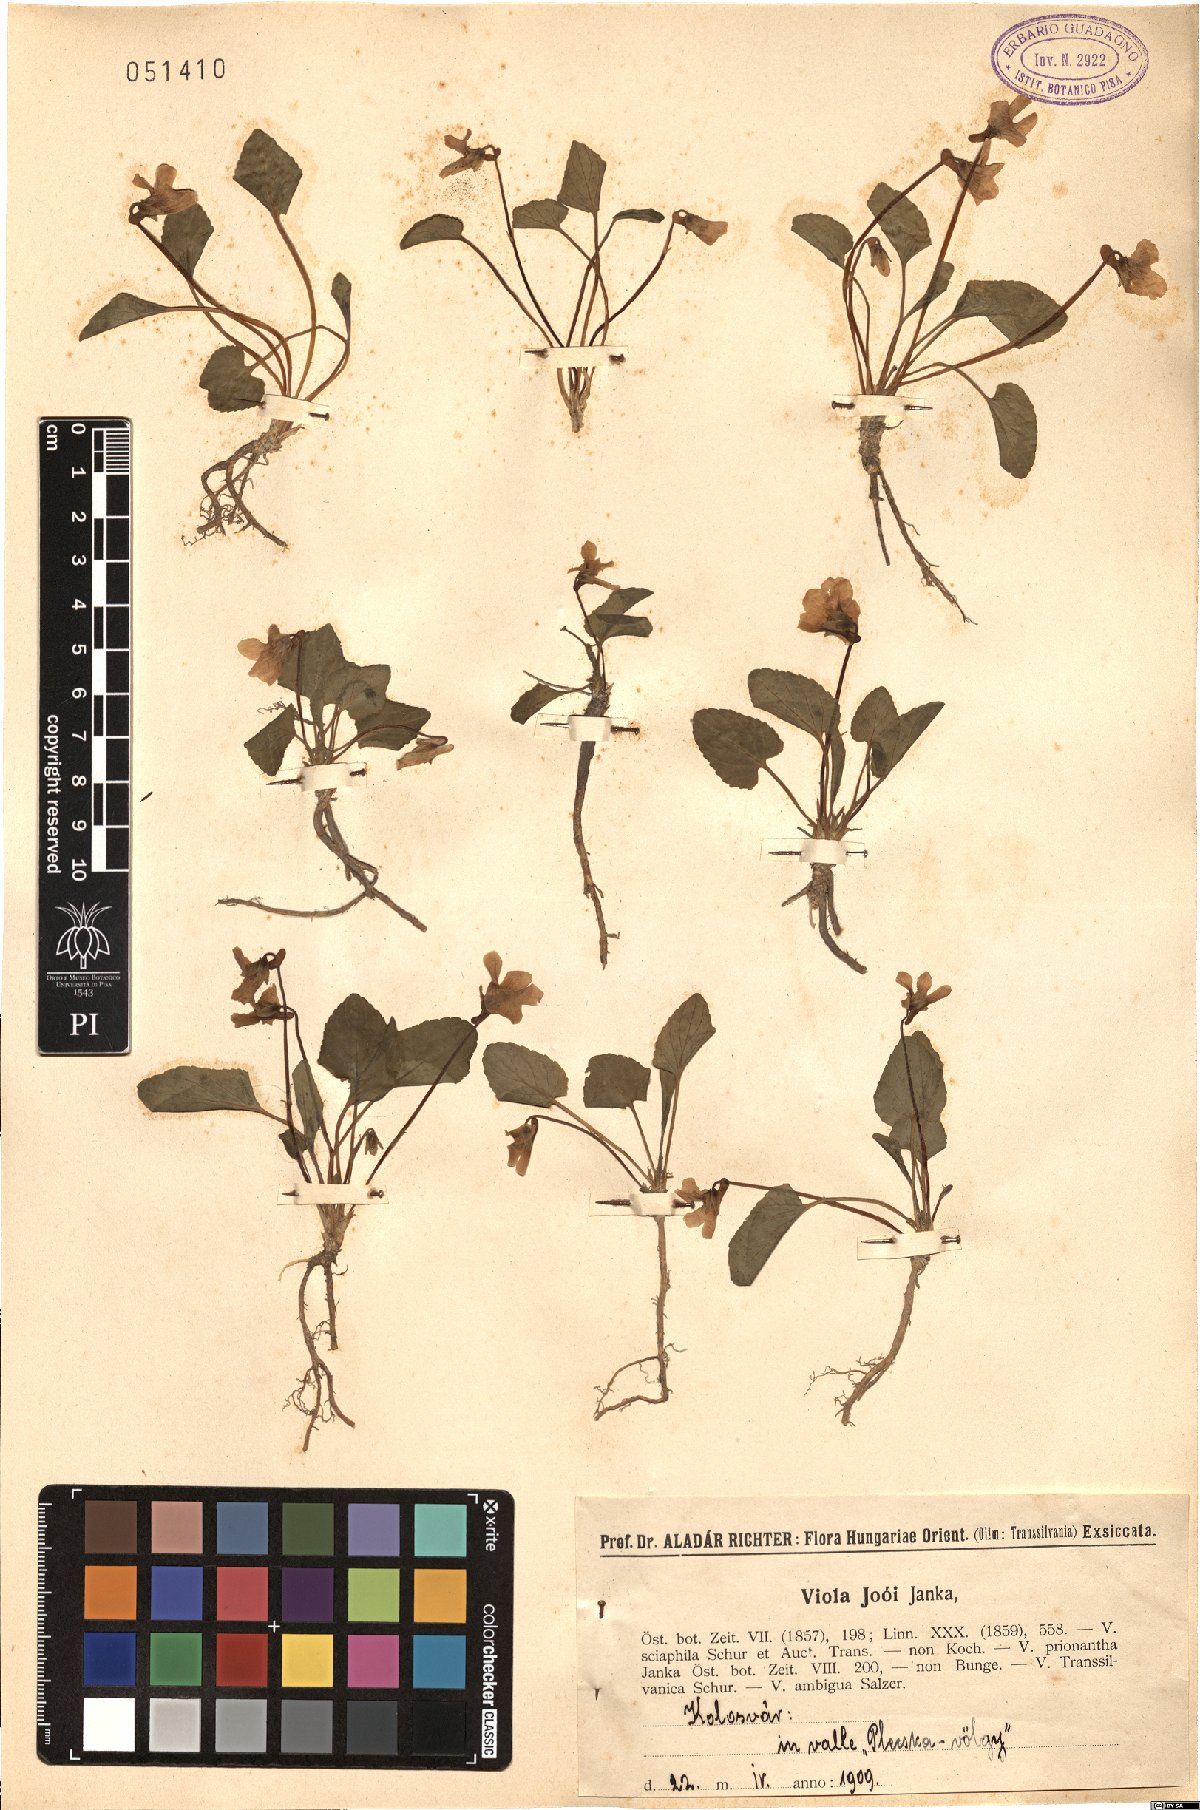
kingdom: Plantae
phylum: Tracheophyta
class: Magnoliopsida
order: Malpighiales
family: Violaceae
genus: Viola
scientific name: Viola jooi
